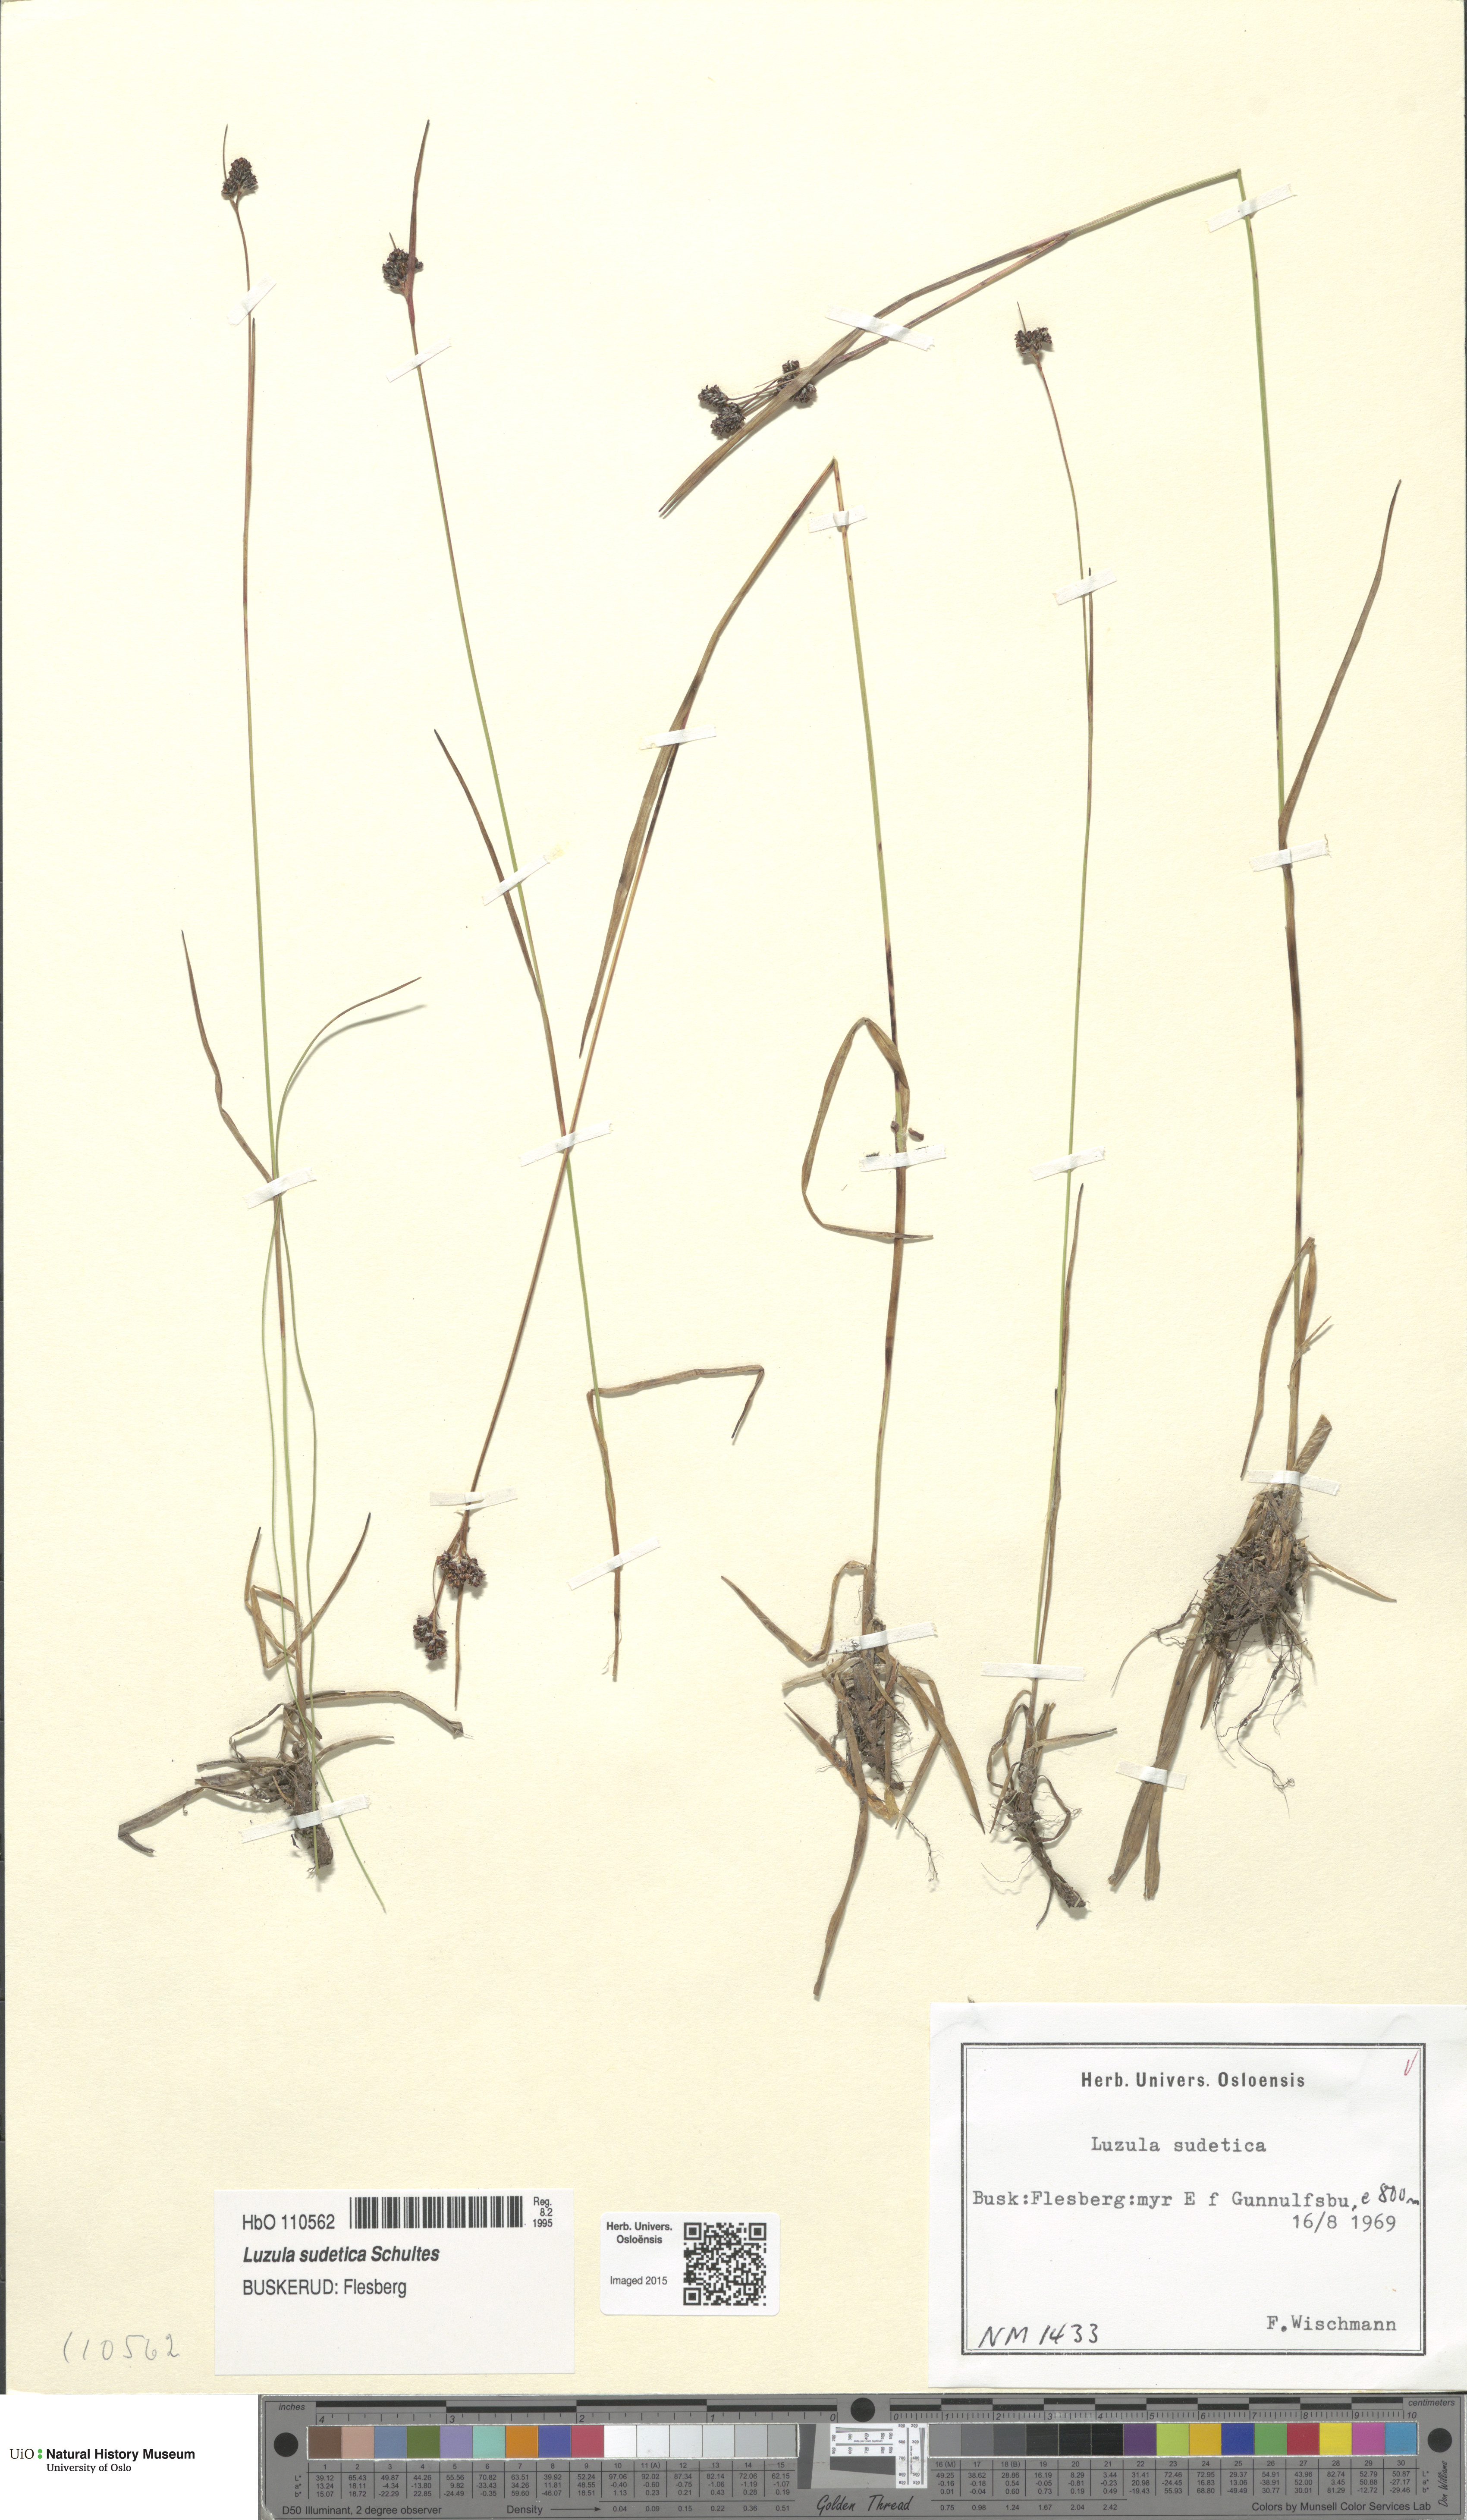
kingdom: Plantae
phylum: Tracheophyta
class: Liliopsida
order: Poales
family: Juncaceae
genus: Luzula
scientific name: Luzula sudetica
